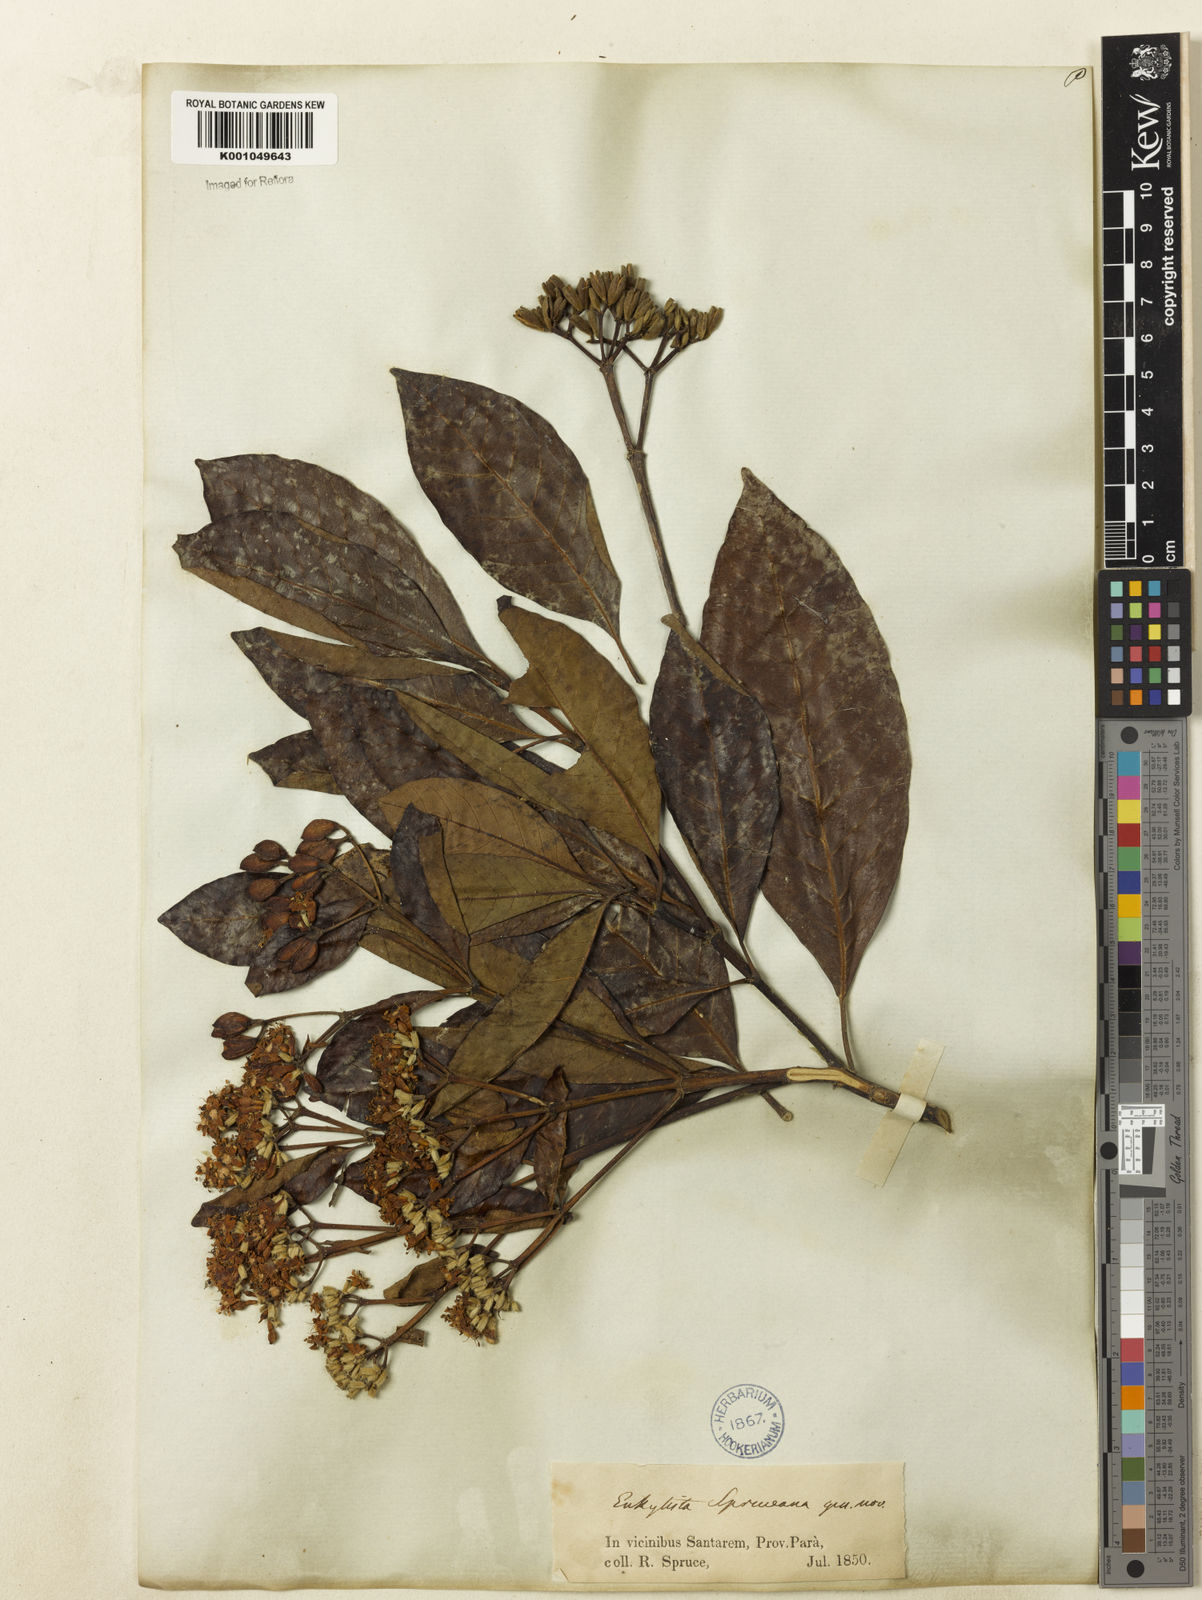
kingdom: Plantae
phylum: Tracheophyta
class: Magnoliopsida
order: Gentianales
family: Rubiaceae
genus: Calycophyllum
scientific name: Calycophyllum spruceanum
